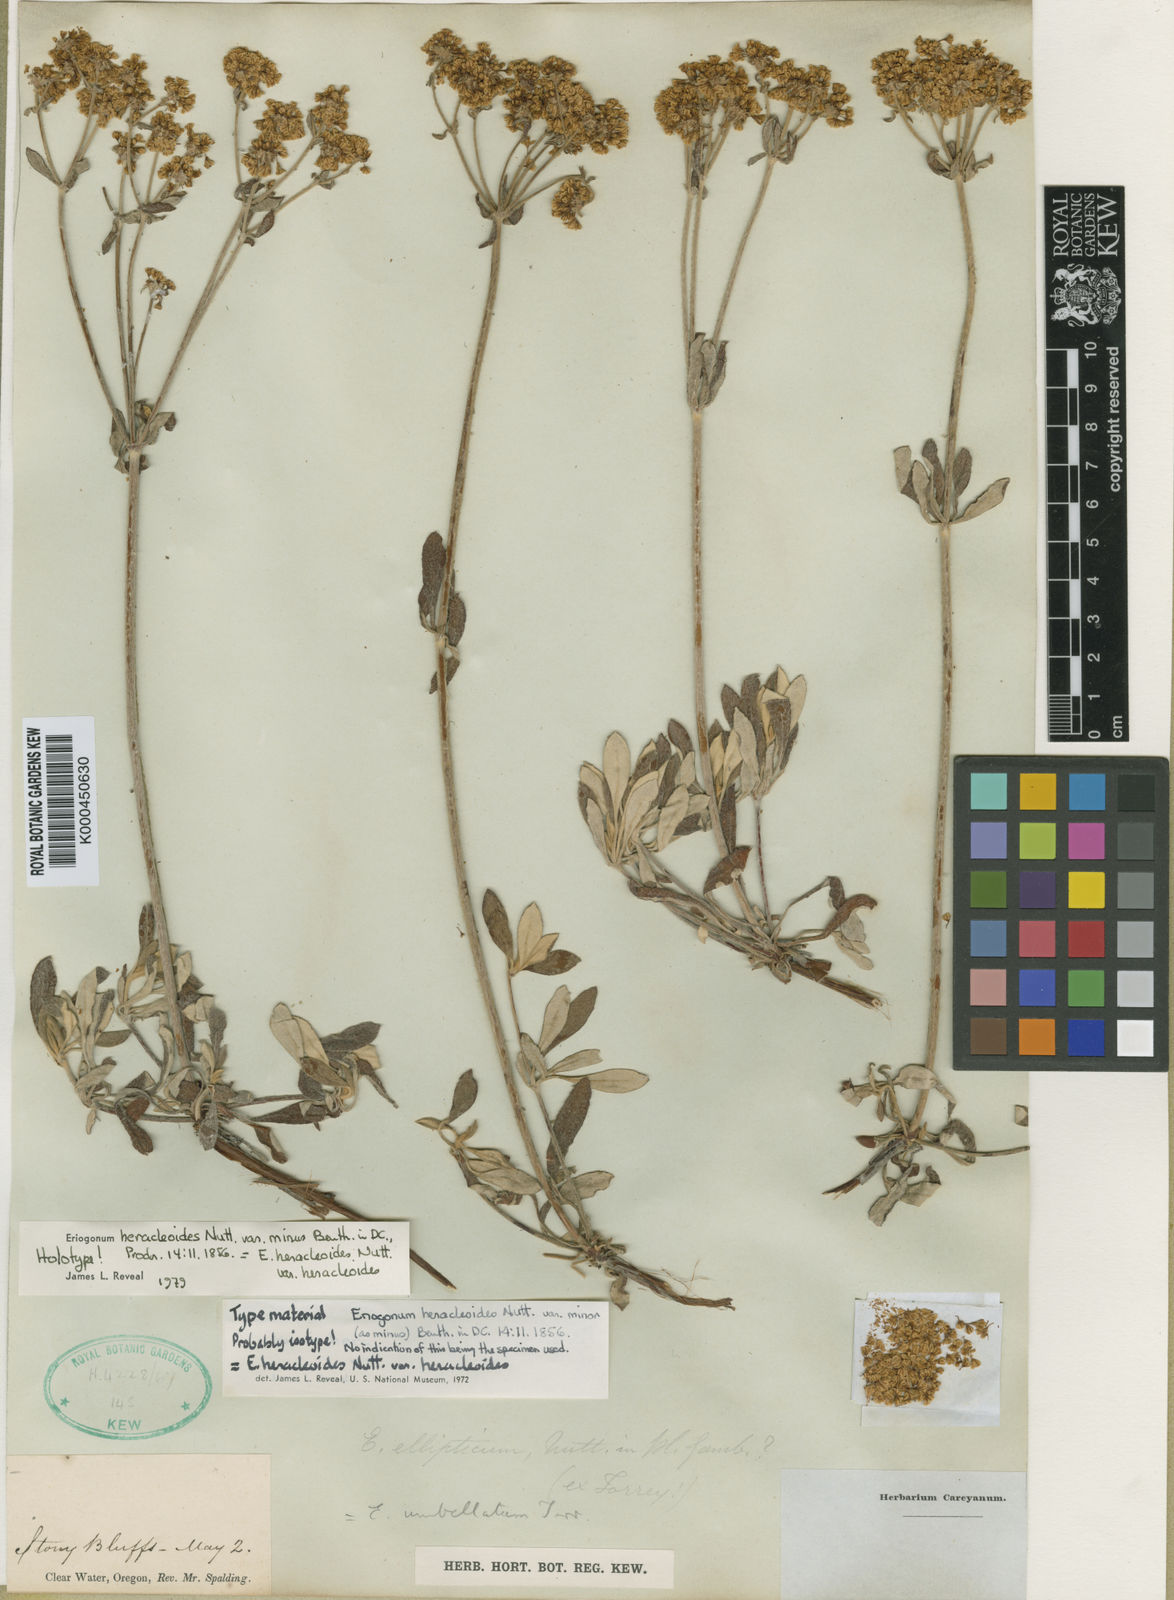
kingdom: Plantae
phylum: Tracheophyta
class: Magnoliopsida
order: Caryophyllales
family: Polygonaceae
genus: Eriogonum
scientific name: Eriogonum
